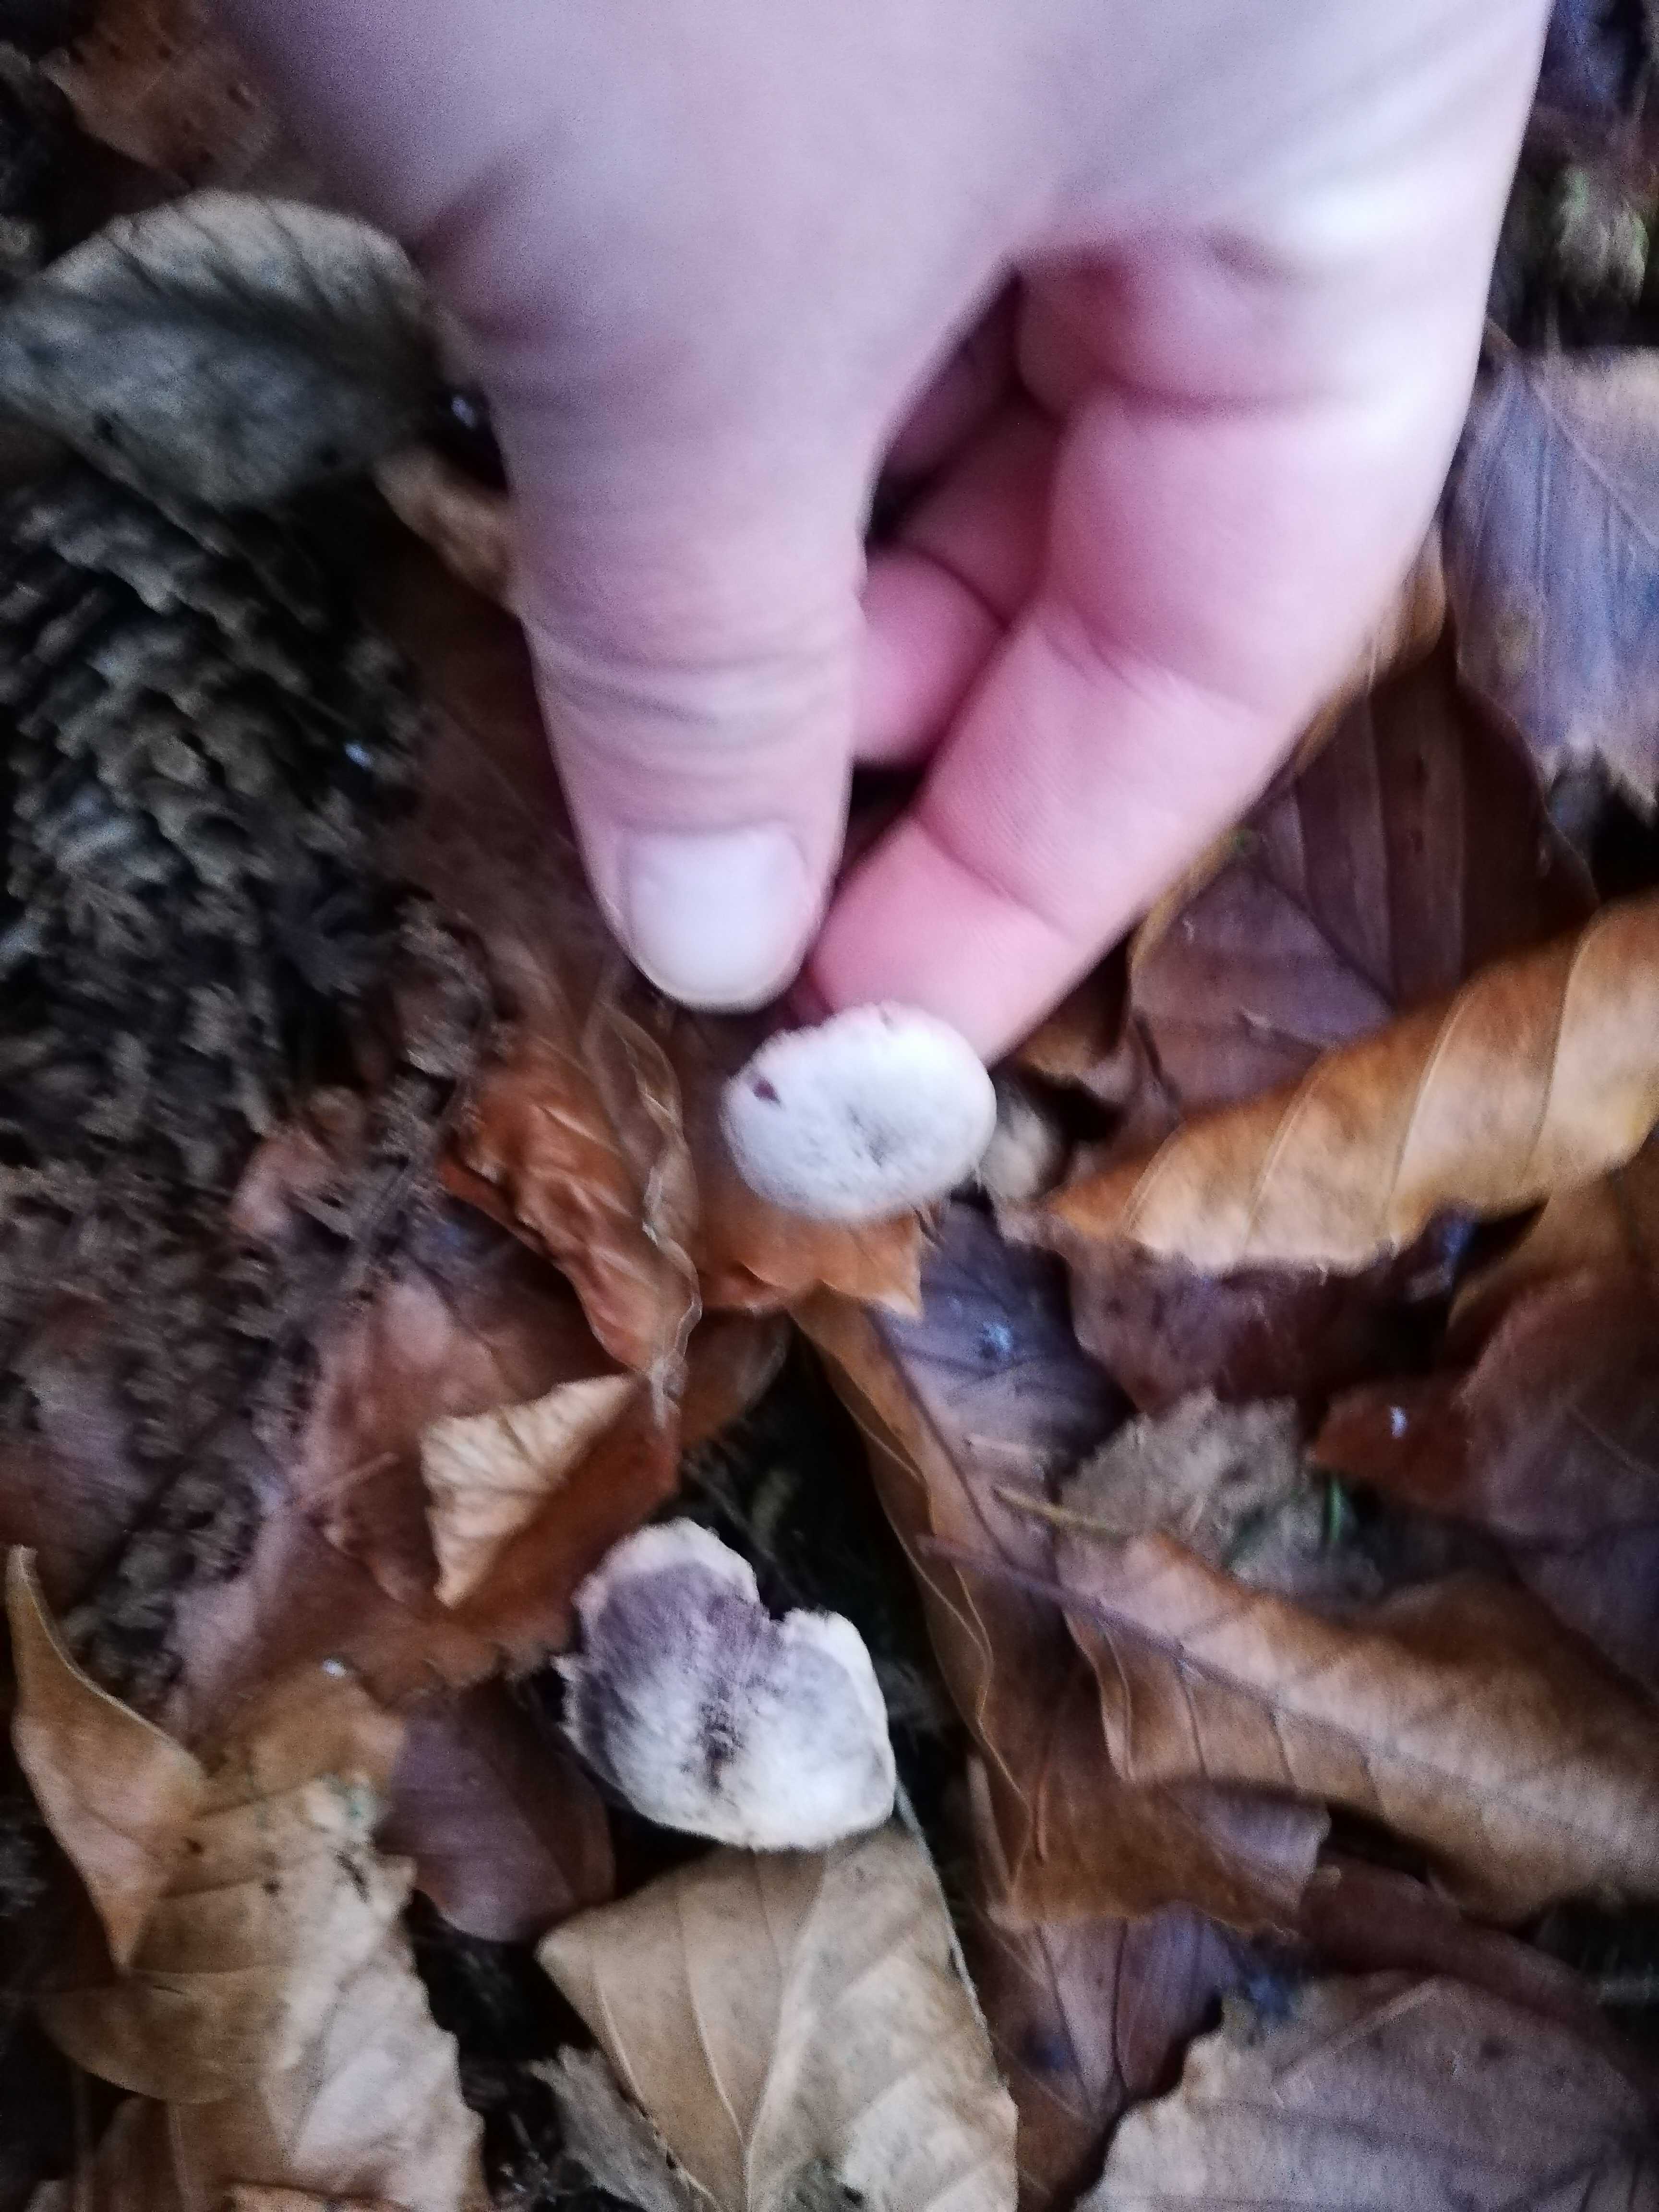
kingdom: Fungi
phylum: Basidiomycota
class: Agaricomycetes
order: Agaricales
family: Hydnangiaceae
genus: Laccaria
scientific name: Laccaria amethystina
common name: violet ametysthat
